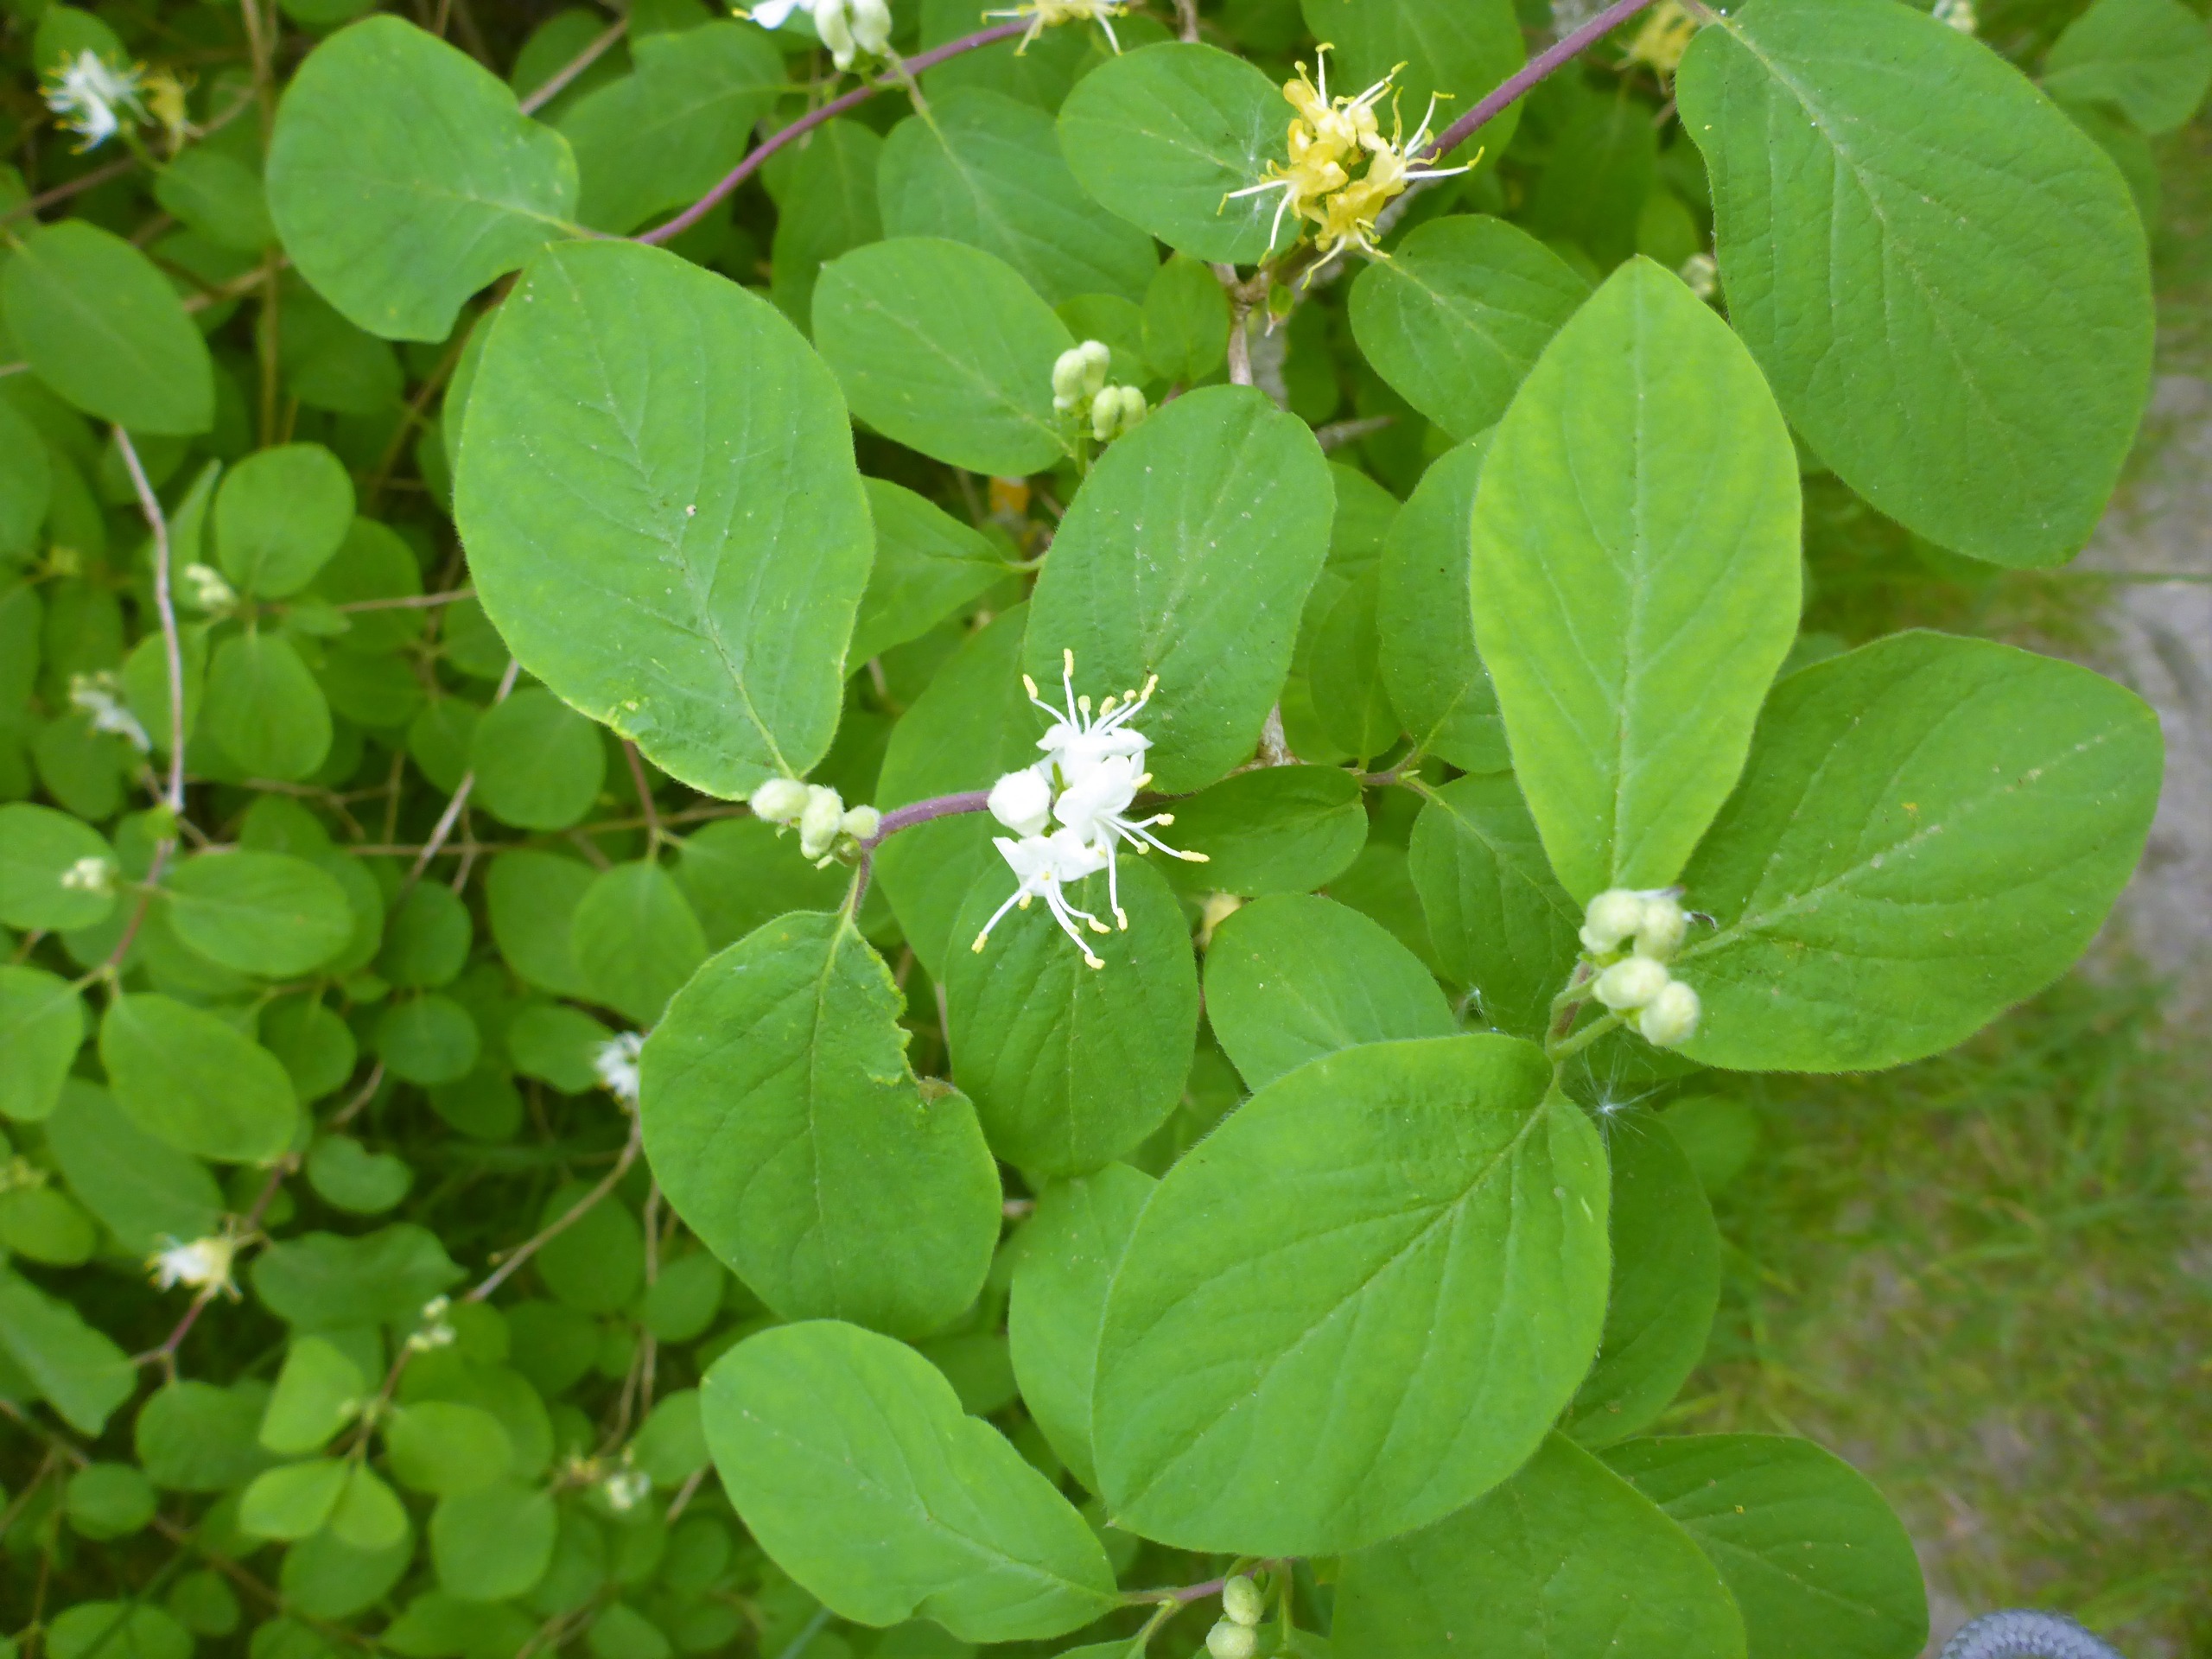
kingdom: Plantae
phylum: Tracheophyta
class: Magnoliopsida
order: Dipsacales
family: Caprifoliaceae
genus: Lonicera
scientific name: Lonicera xylosteum
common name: Dunet gedeblad
